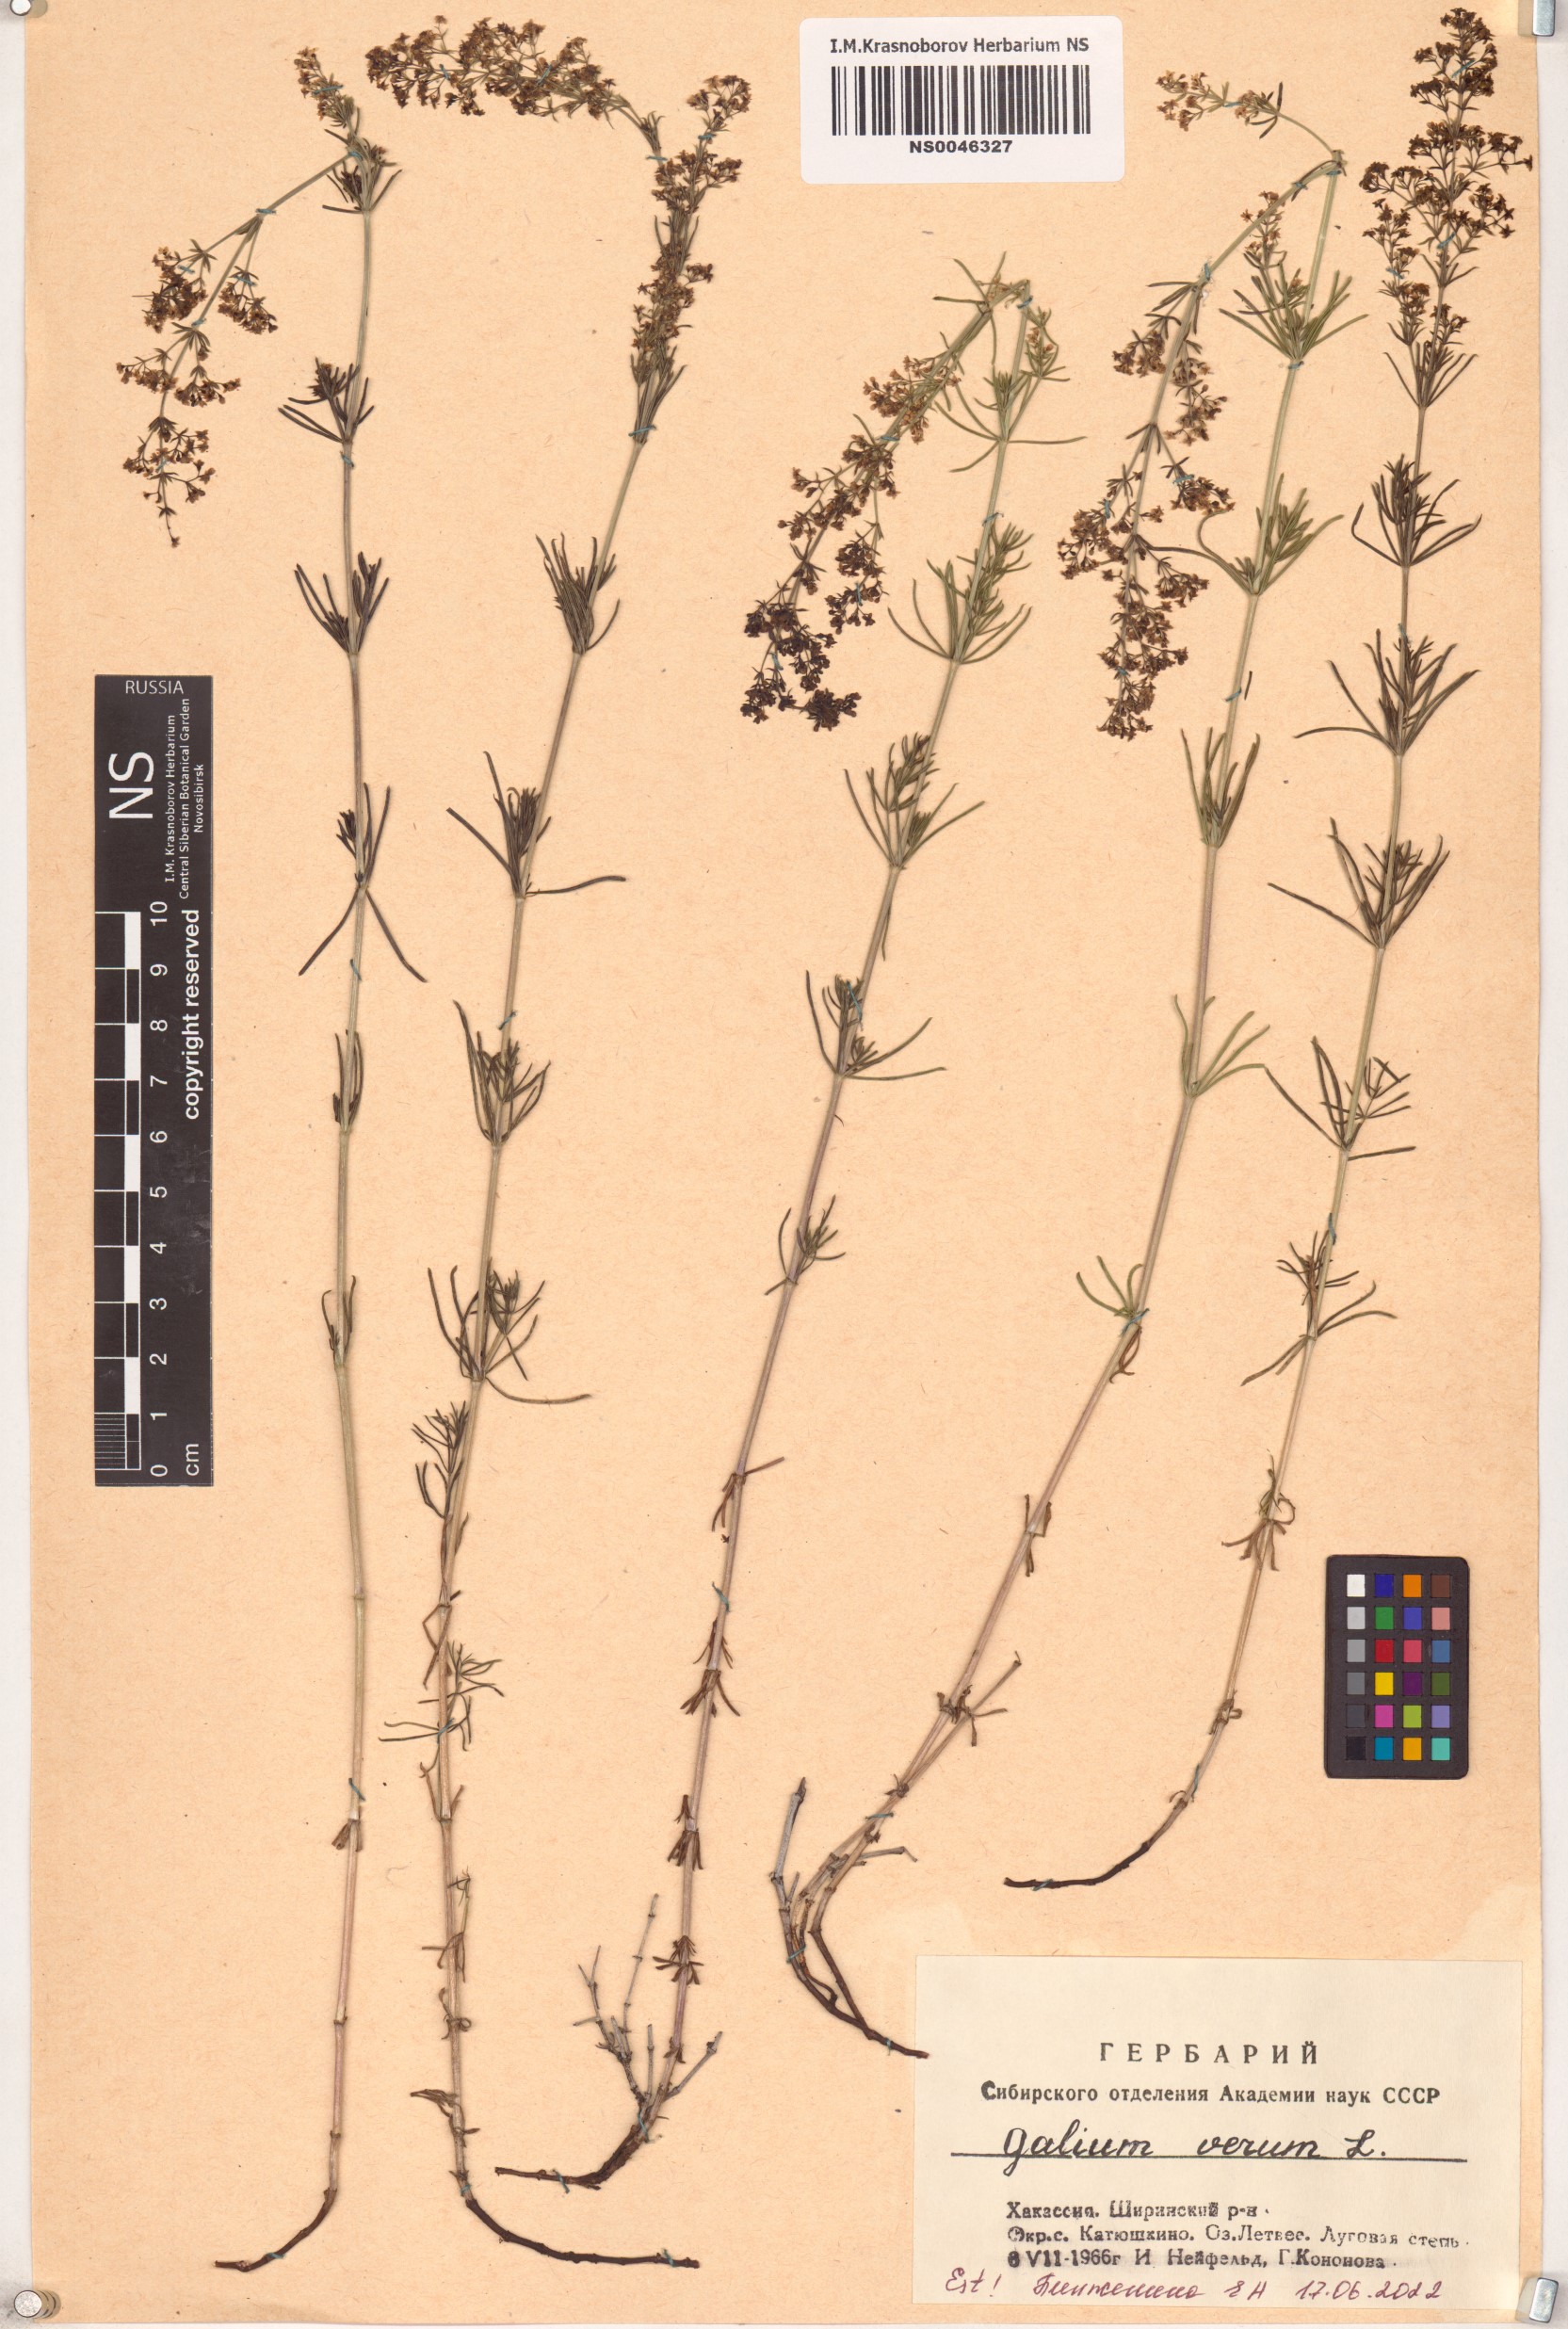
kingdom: Plantae
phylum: Tracheophyta
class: Magnoliopsida
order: Gentianales
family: Rubiaceae
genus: Galium
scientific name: Galium verum
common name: Lady's bedstraw
